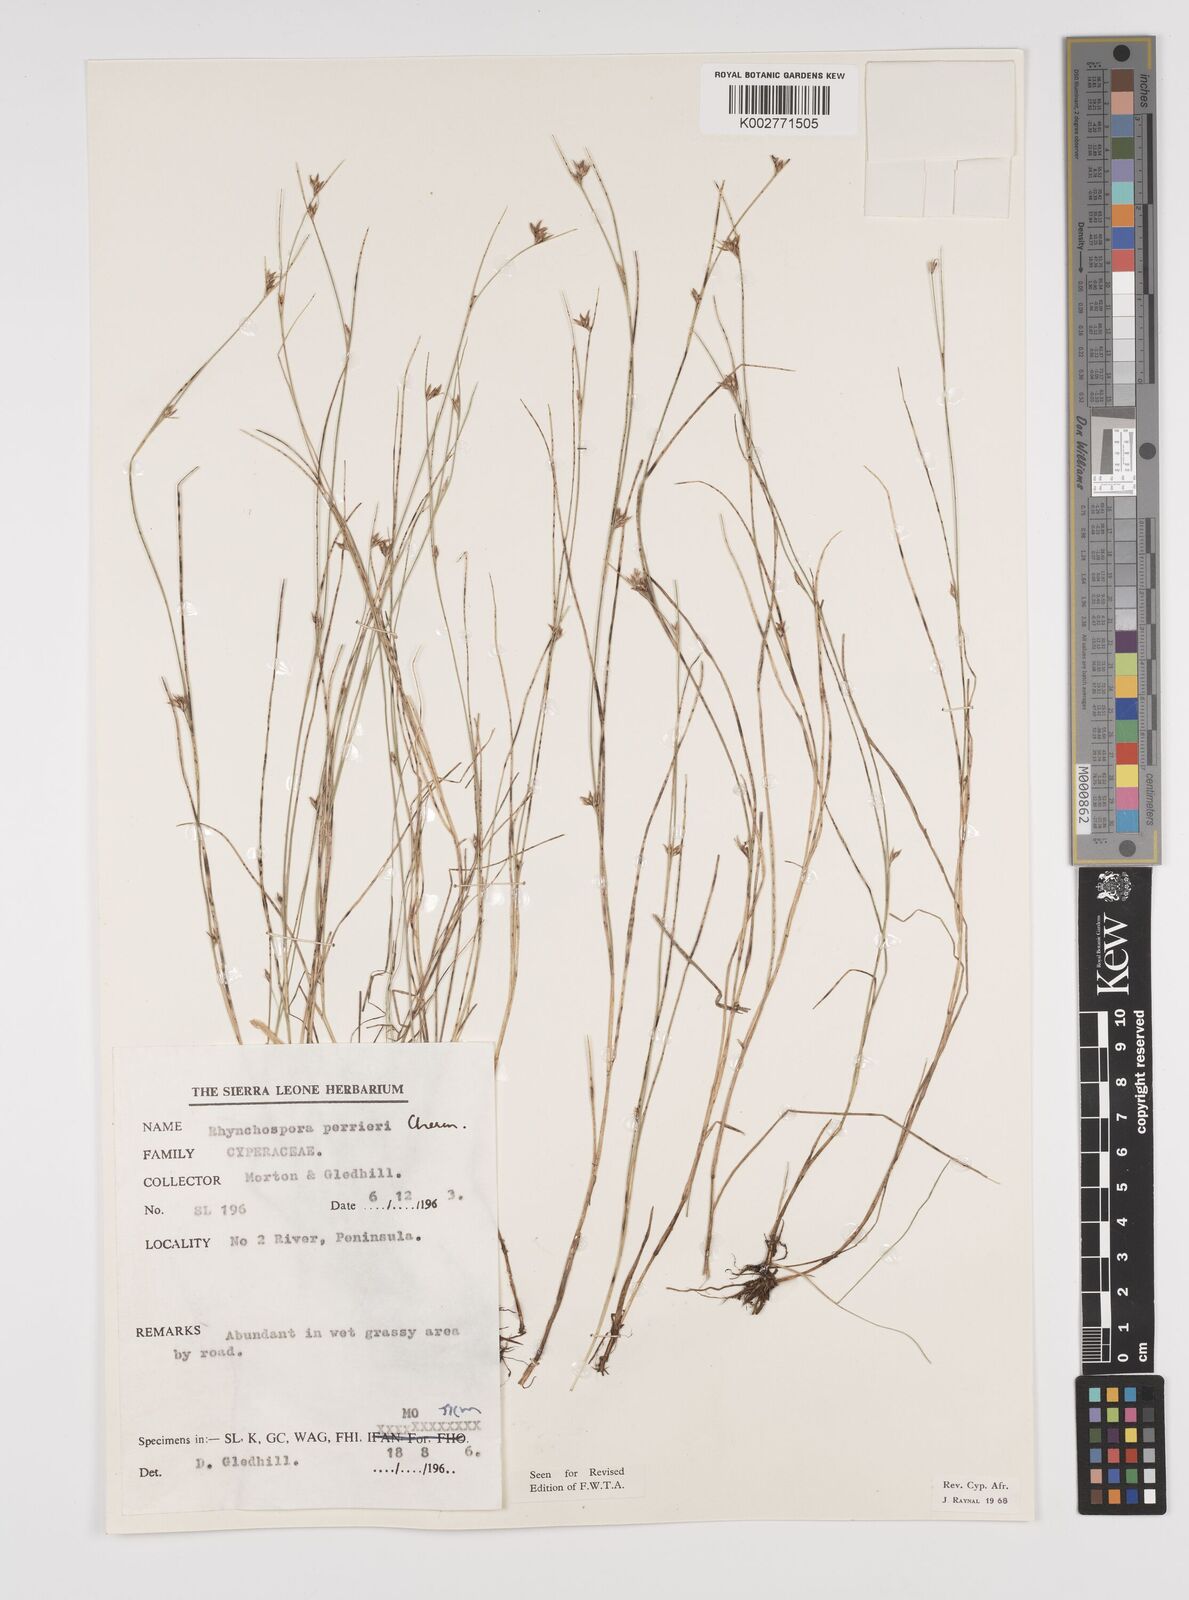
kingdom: Plantae
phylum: Tracheophyta
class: Liliopsida
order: Poales
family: Cyperaceae
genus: Rhynchospora
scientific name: Rhynchospora perrieri
